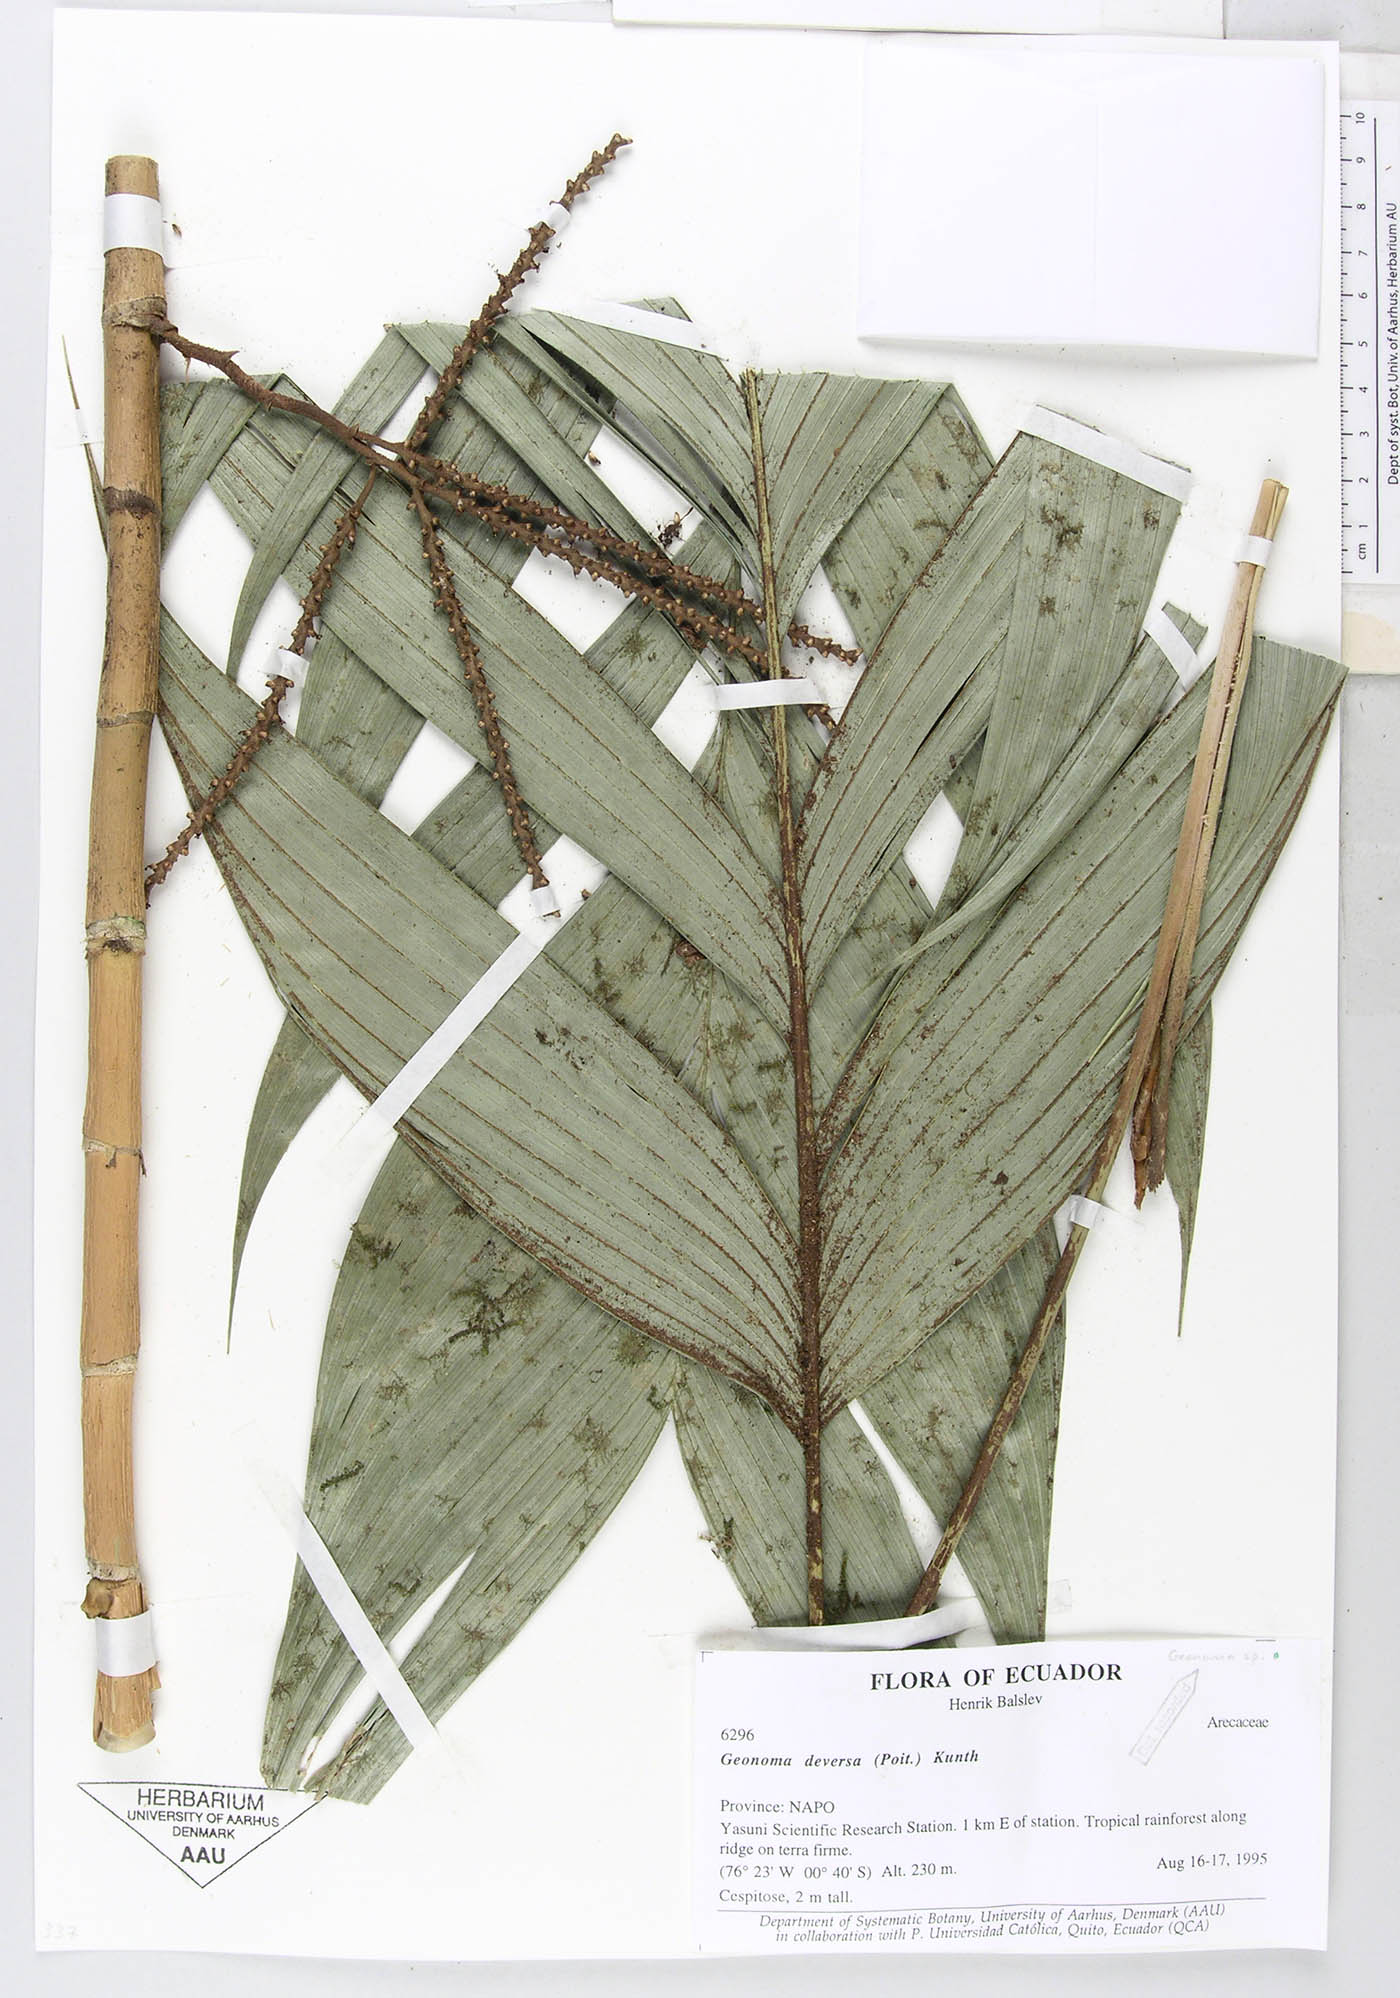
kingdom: Plantae
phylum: Tracheophyta
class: Liliopsida
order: Arecales
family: Arecaceae
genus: Geonoma
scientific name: Geonoma stricta
